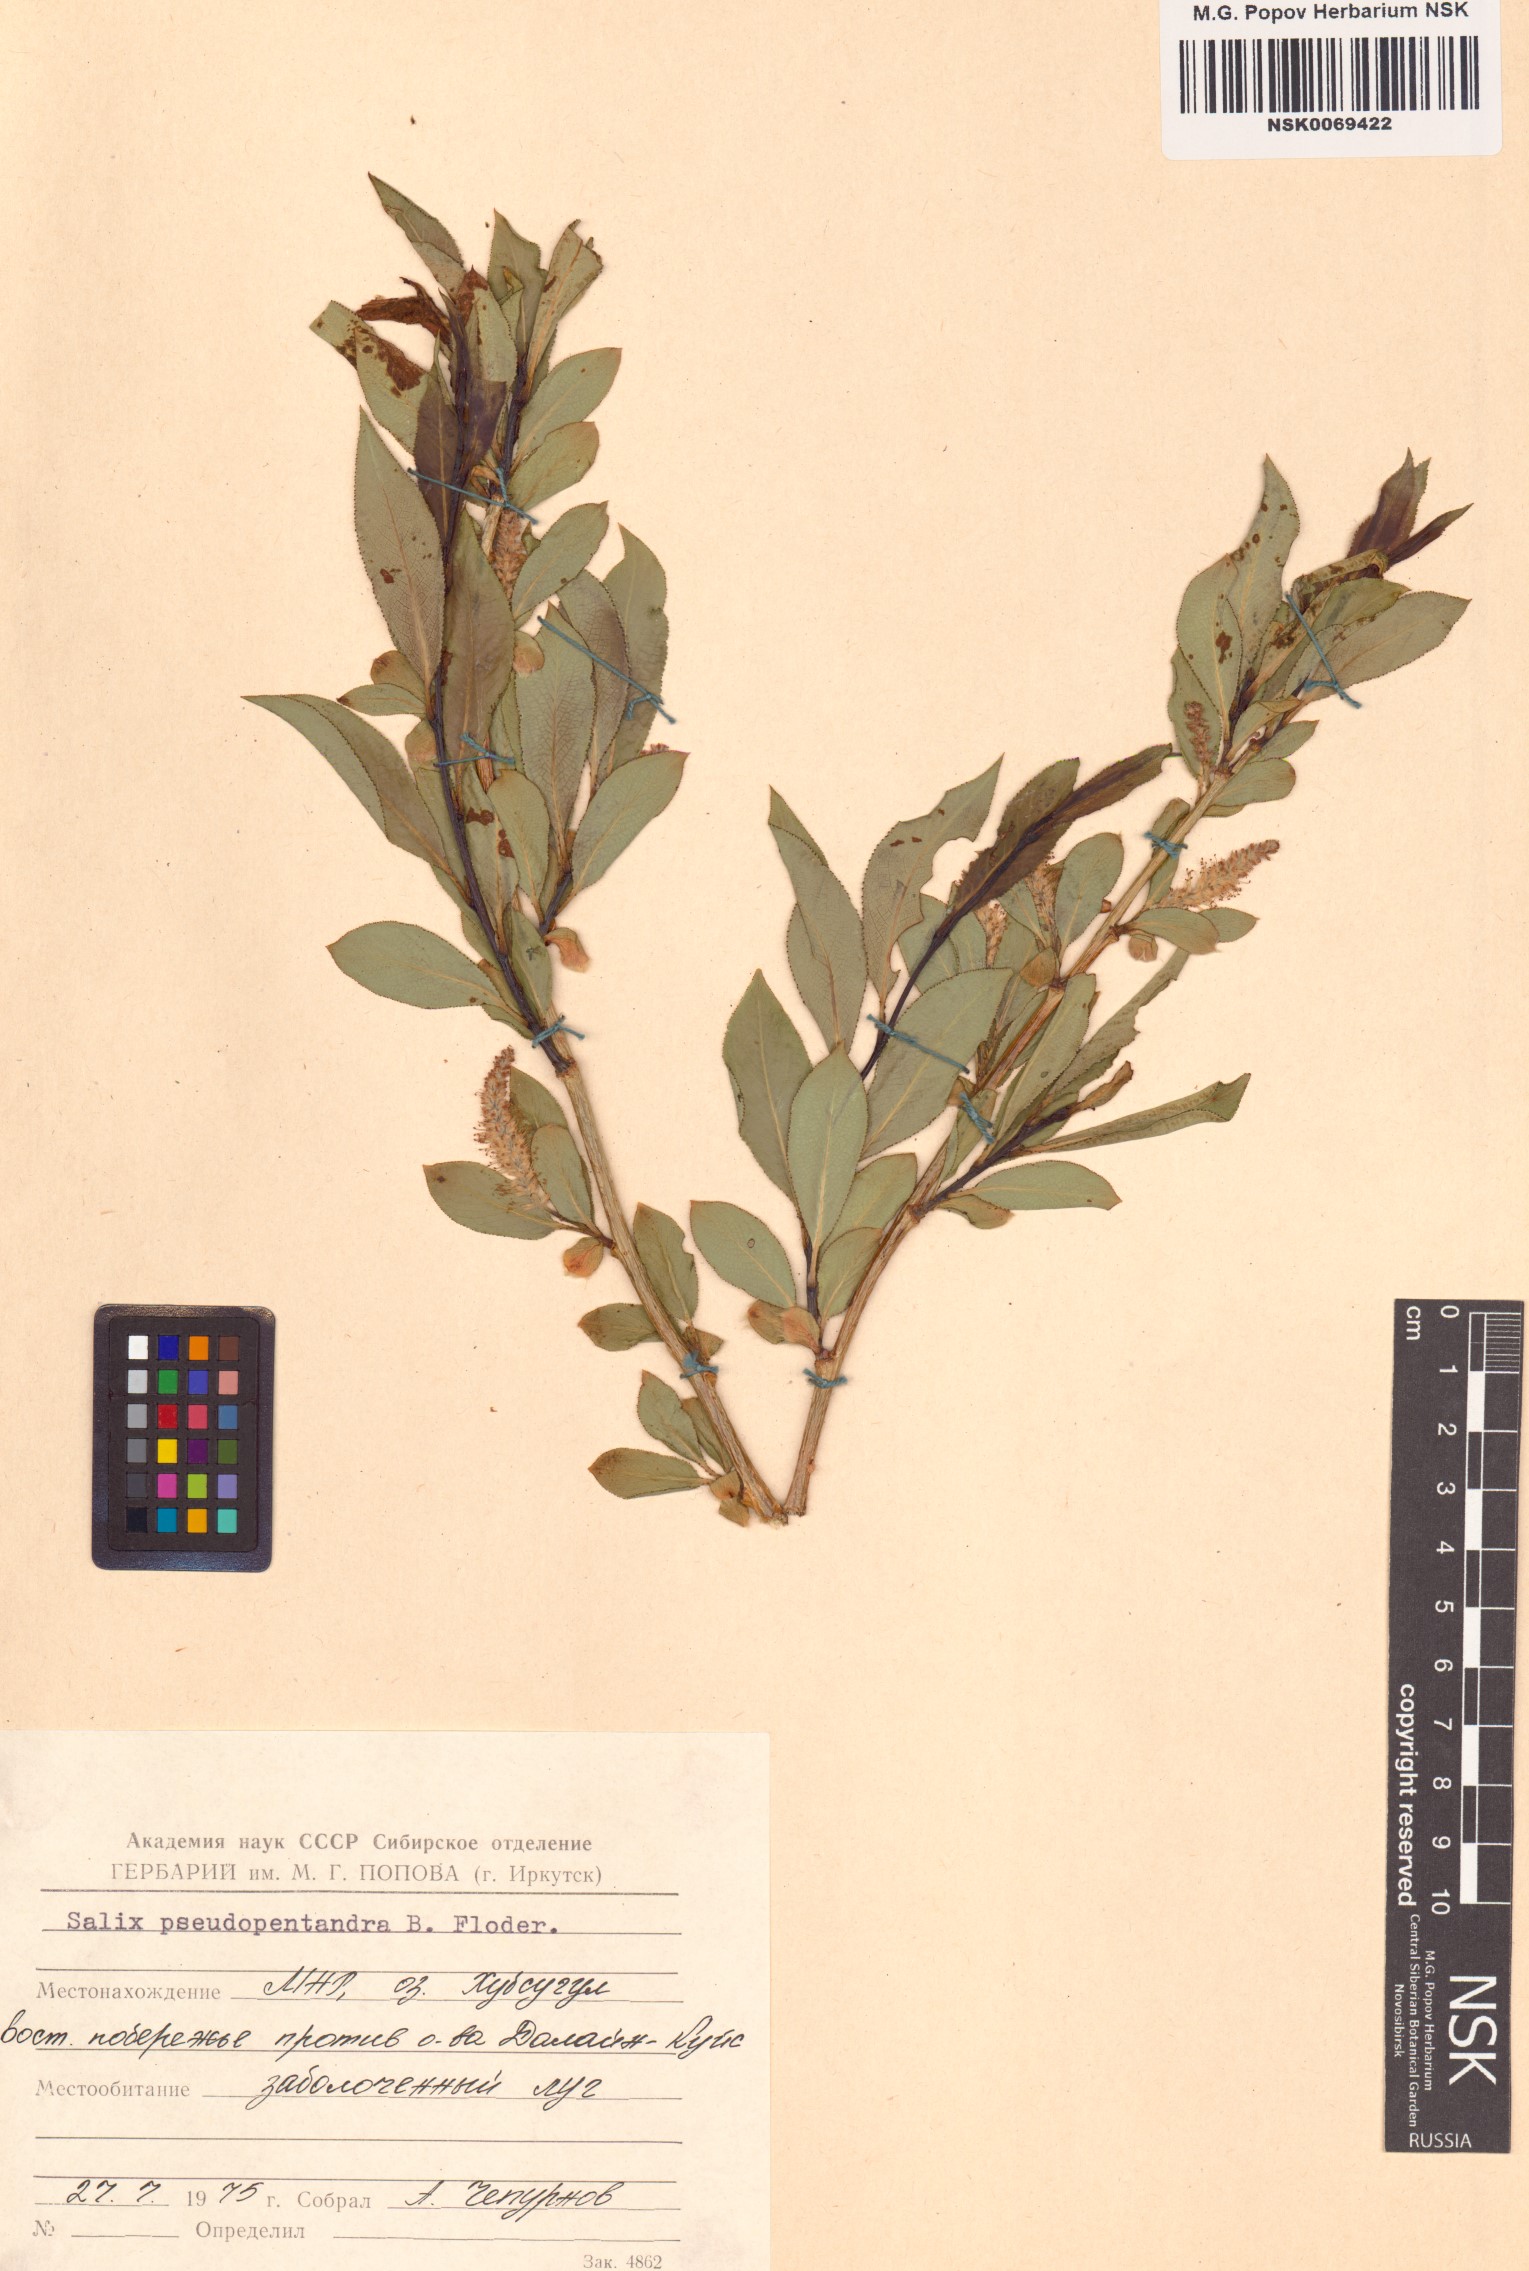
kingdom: Plantae
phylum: Tracheophyta
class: Magnoliopsida
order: Malpighiales
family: Salicaceae
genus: Salix
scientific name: Salix pseudopentandra
